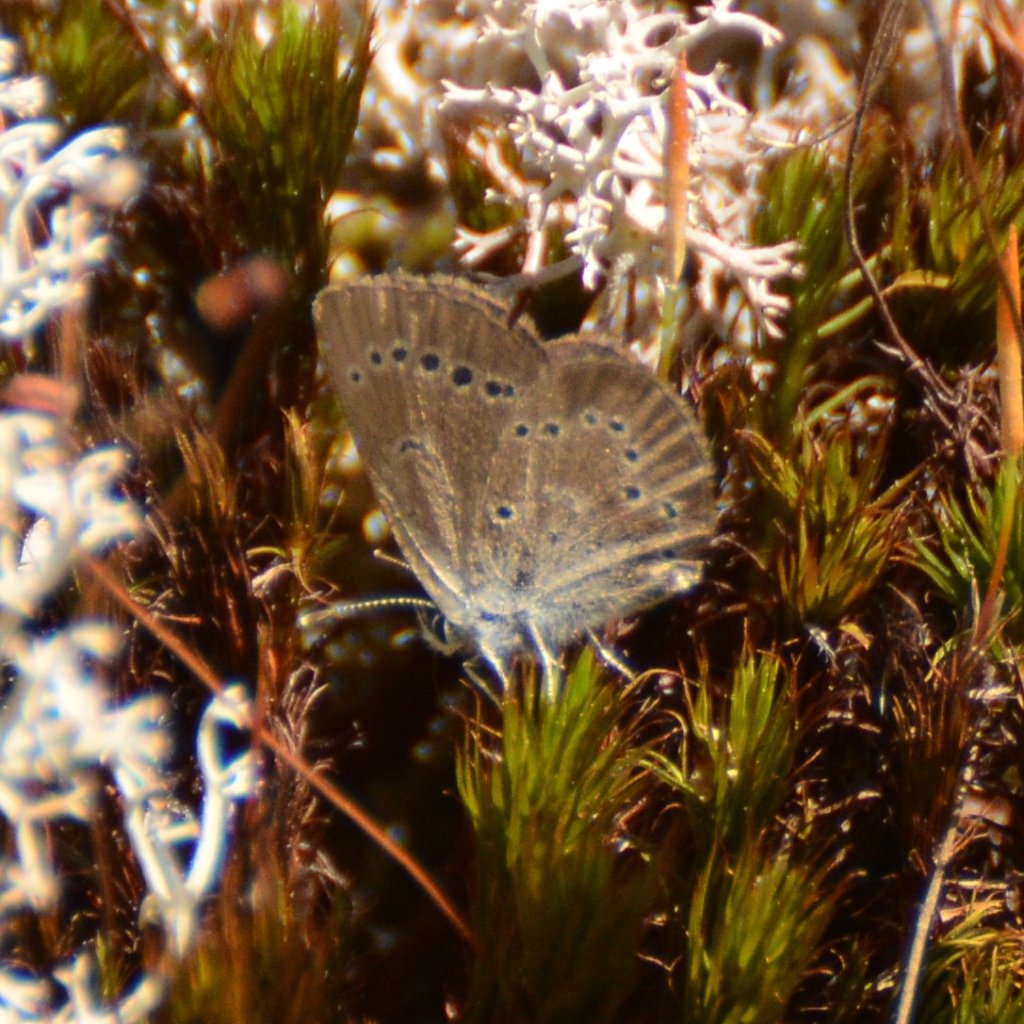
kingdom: Animalia
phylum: Arthropoda
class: Insecta
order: Lepidoptera
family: Lycaenidae
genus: Glaucopsyche
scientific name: Glaucopsyche lygdamus
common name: Silvery Blue
